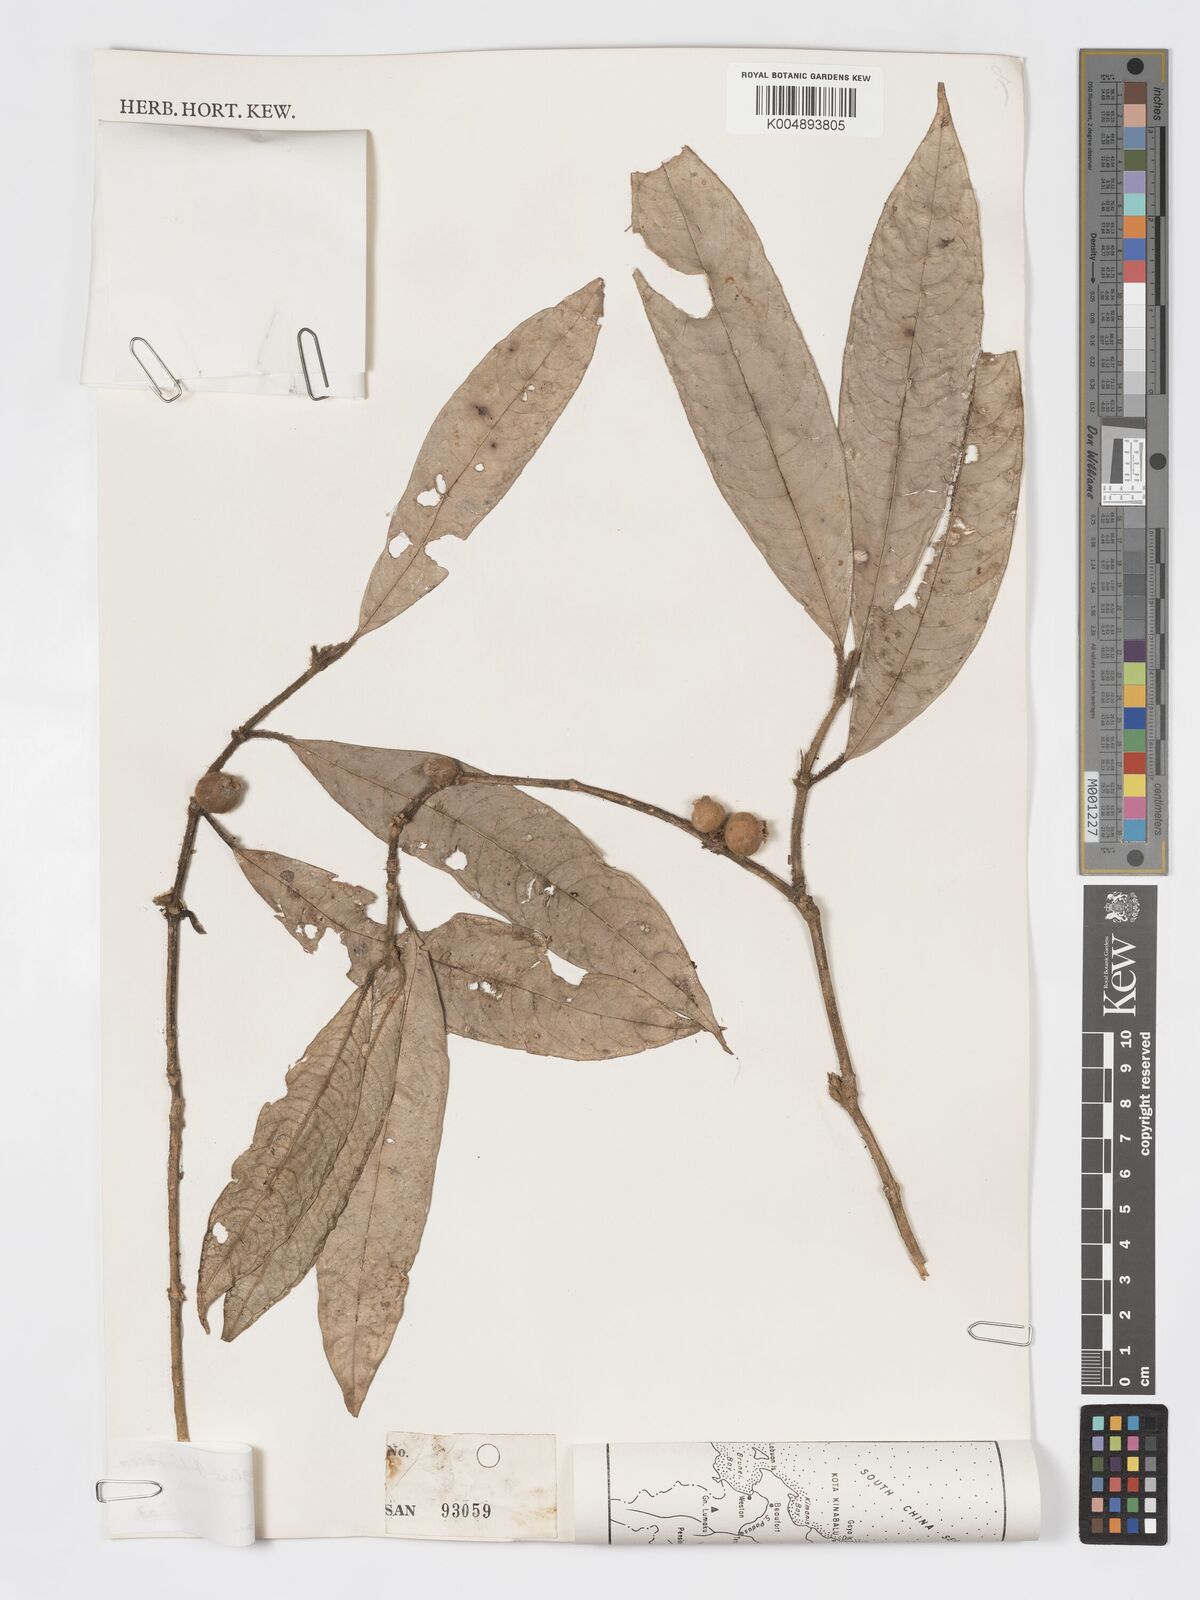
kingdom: Plantae
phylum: Tracheophyta
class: Magnoliopsida
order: Gentianales
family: Rubiaceae
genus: Praravinia
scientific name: Praravinia borneensis
